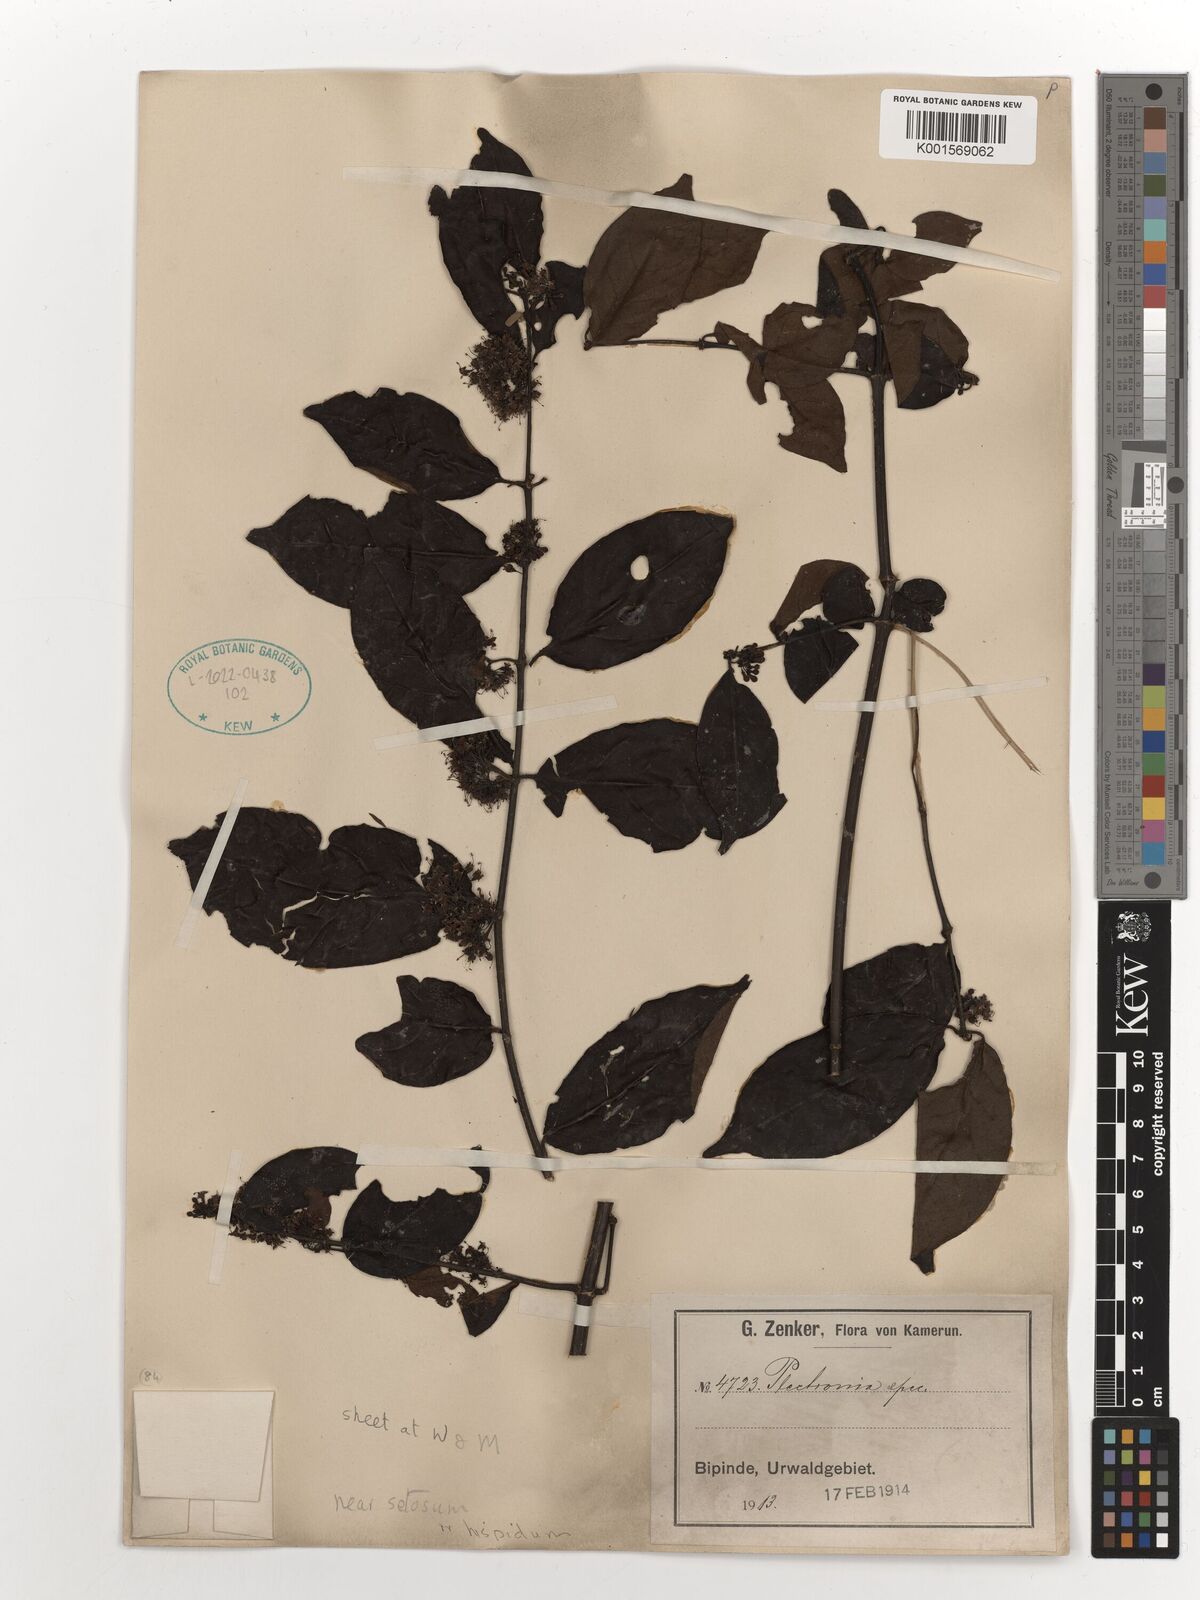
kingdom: Plantae
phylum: Tracheophyta
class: Magnoliopsida
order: Myrtales
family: Lythraceae
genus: Plectronia
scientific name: Plectronia
